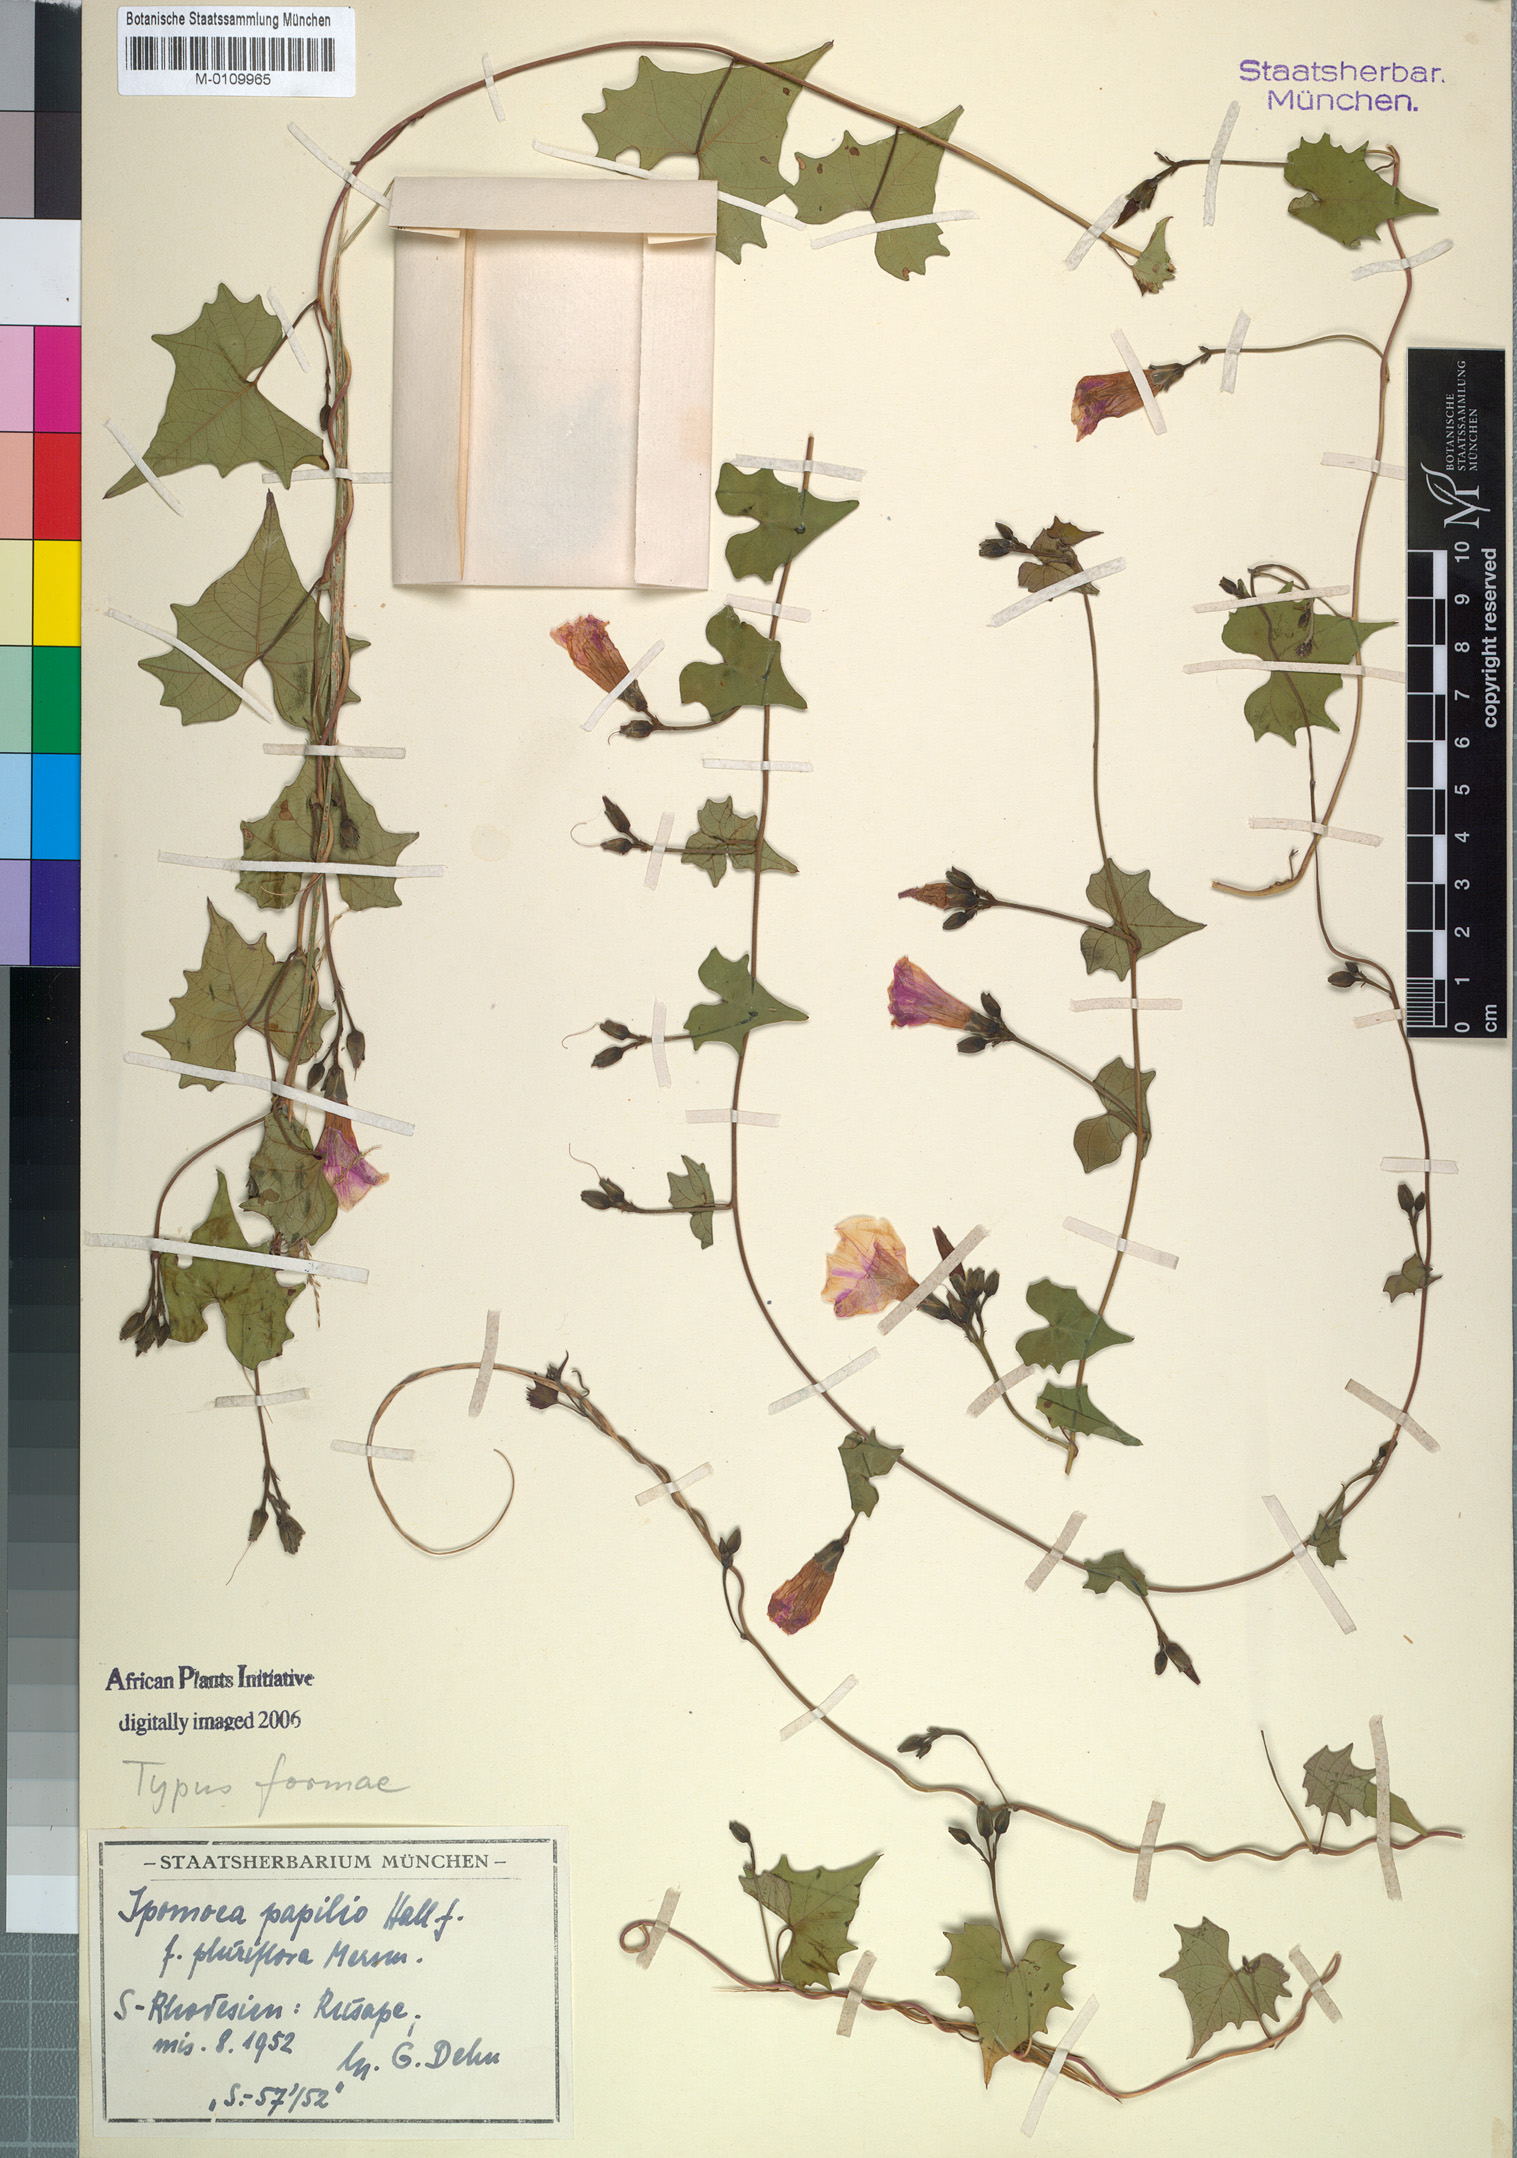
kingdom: Plantae
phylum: Tracheophyta
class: Magnoliopsida
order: Solanales
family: Convolvulaceae
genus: Ipomoea
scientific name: Ipomoea papilio
